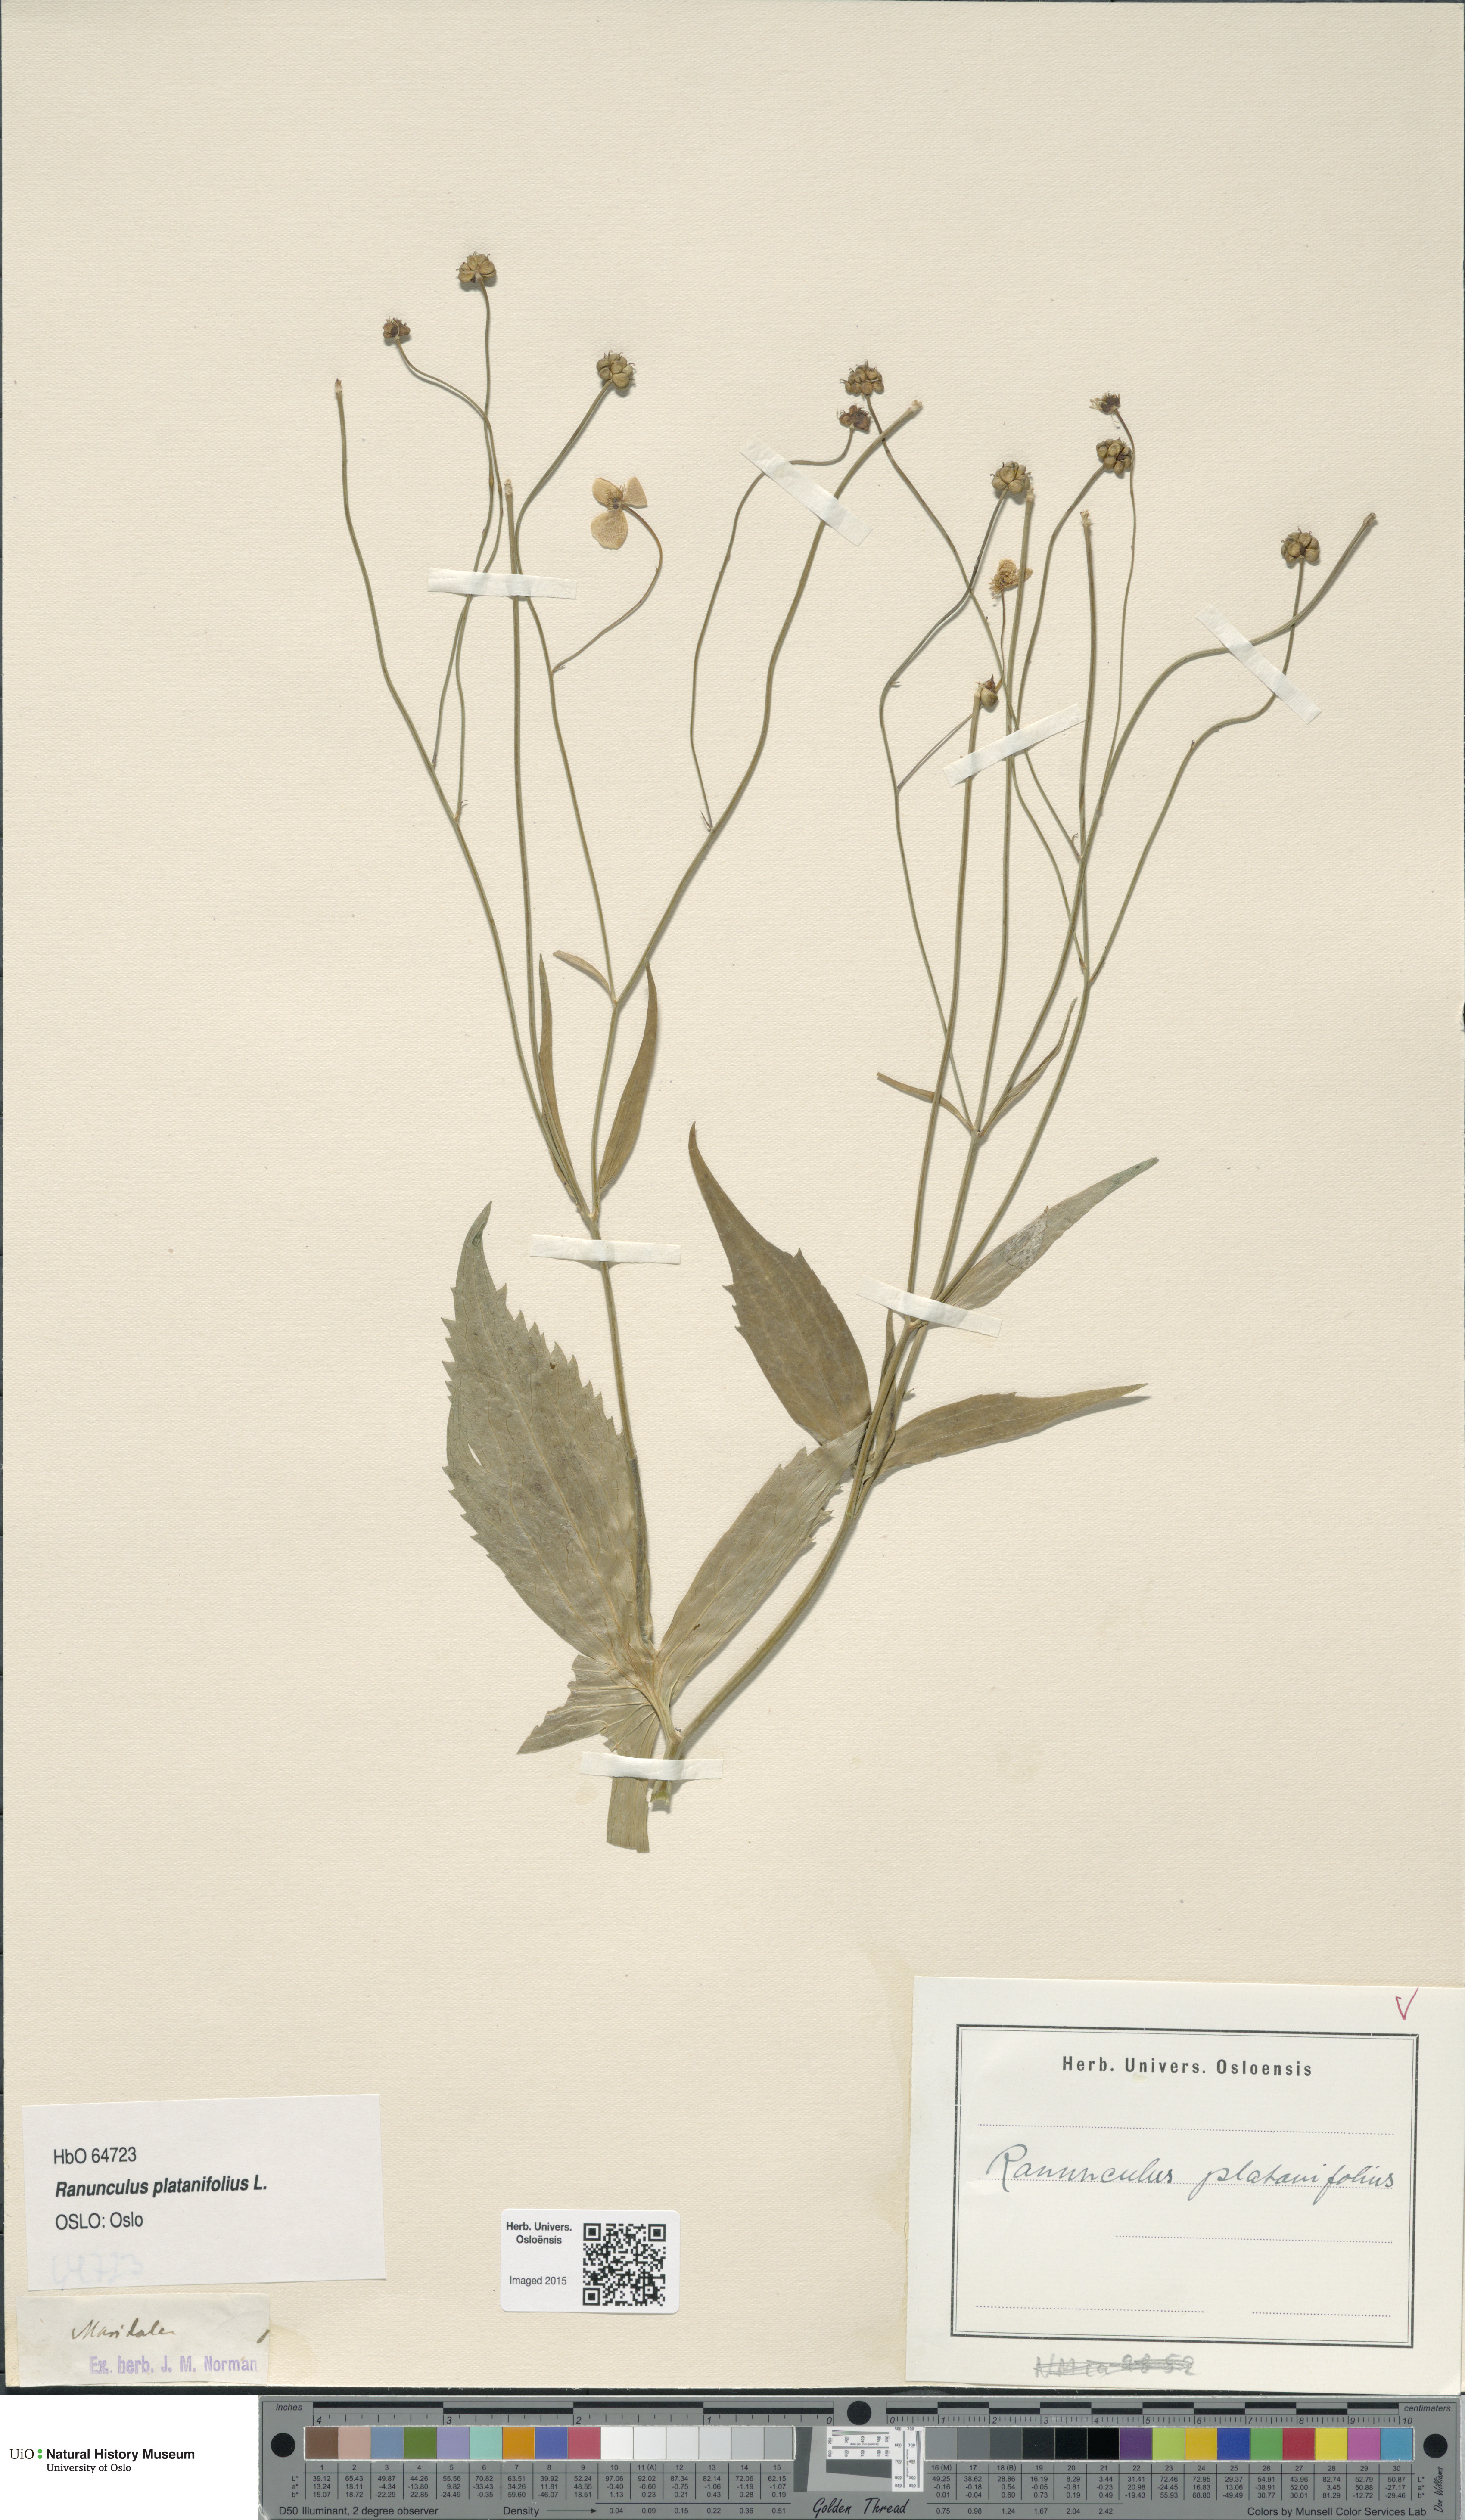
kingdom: Plantae
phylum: Tracheophyta
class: Magnoliopsida
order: Ranunculales
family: Ranunculaceae
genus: Ranunculus
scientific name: Ranunculus platanifolius
